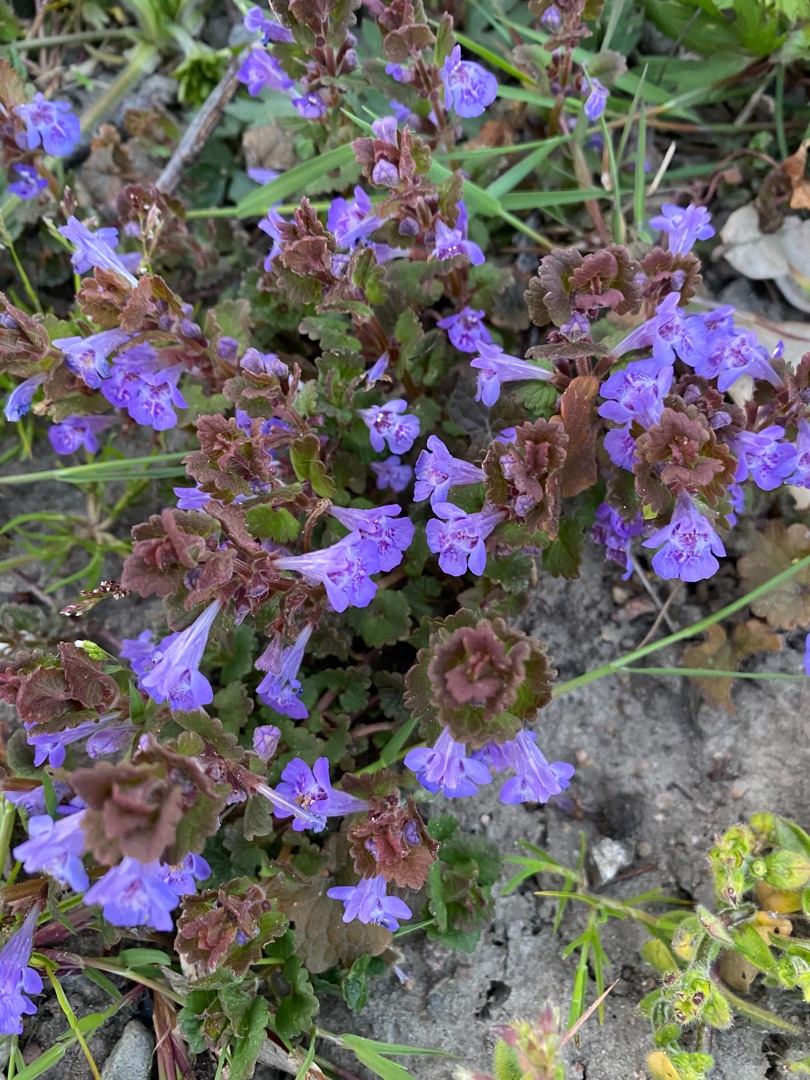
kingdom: Plantae
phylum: Tracheophyta
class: Magnoliopsida
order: Lamiales
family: Lamiaceae
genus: Glechoma
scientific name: Glechoma hederacea
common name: Korsknap
